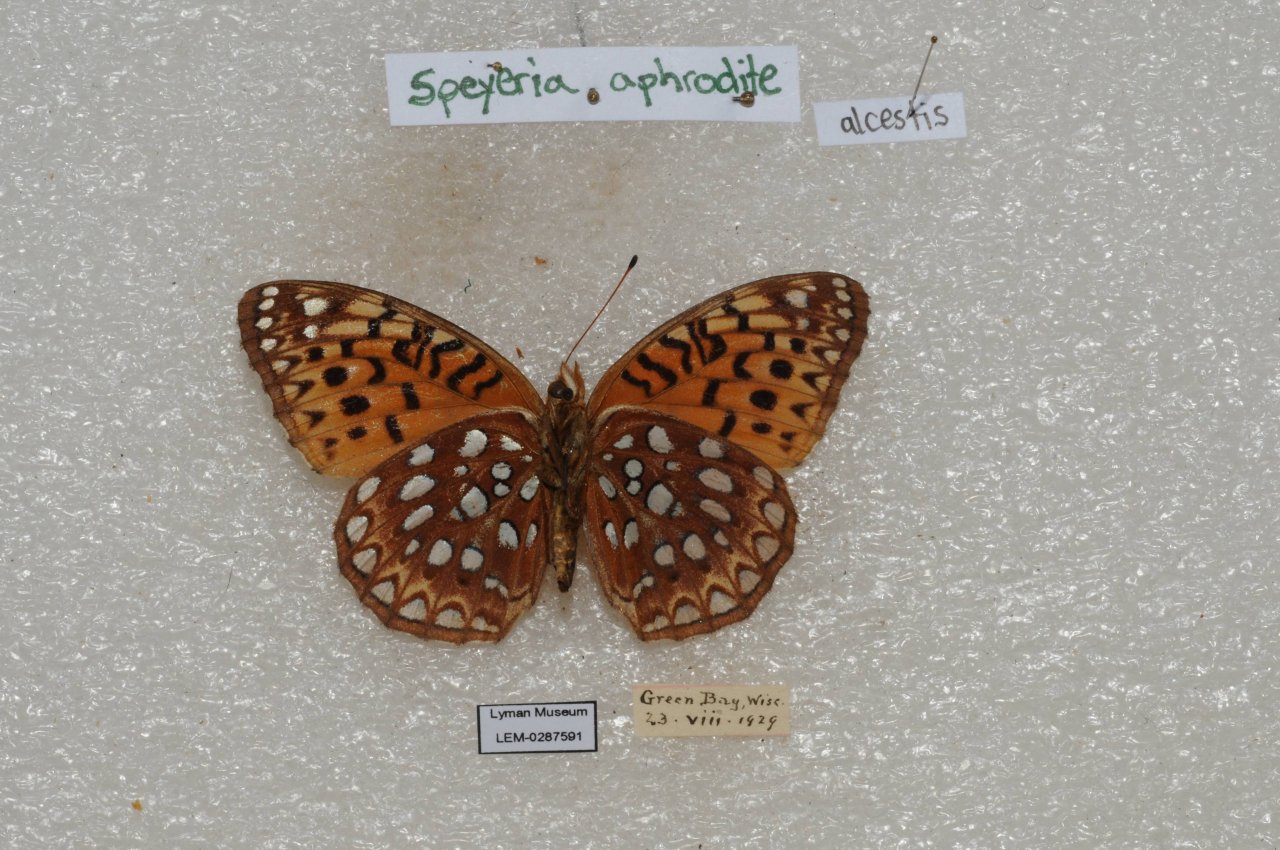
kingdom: Animalia
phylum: Arthropoda
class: Insecta
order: Lepidoptera
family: Nymphalidae
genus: Speyeria
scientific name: Speyeria aphrodite
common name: Aphrodite Fritillary
